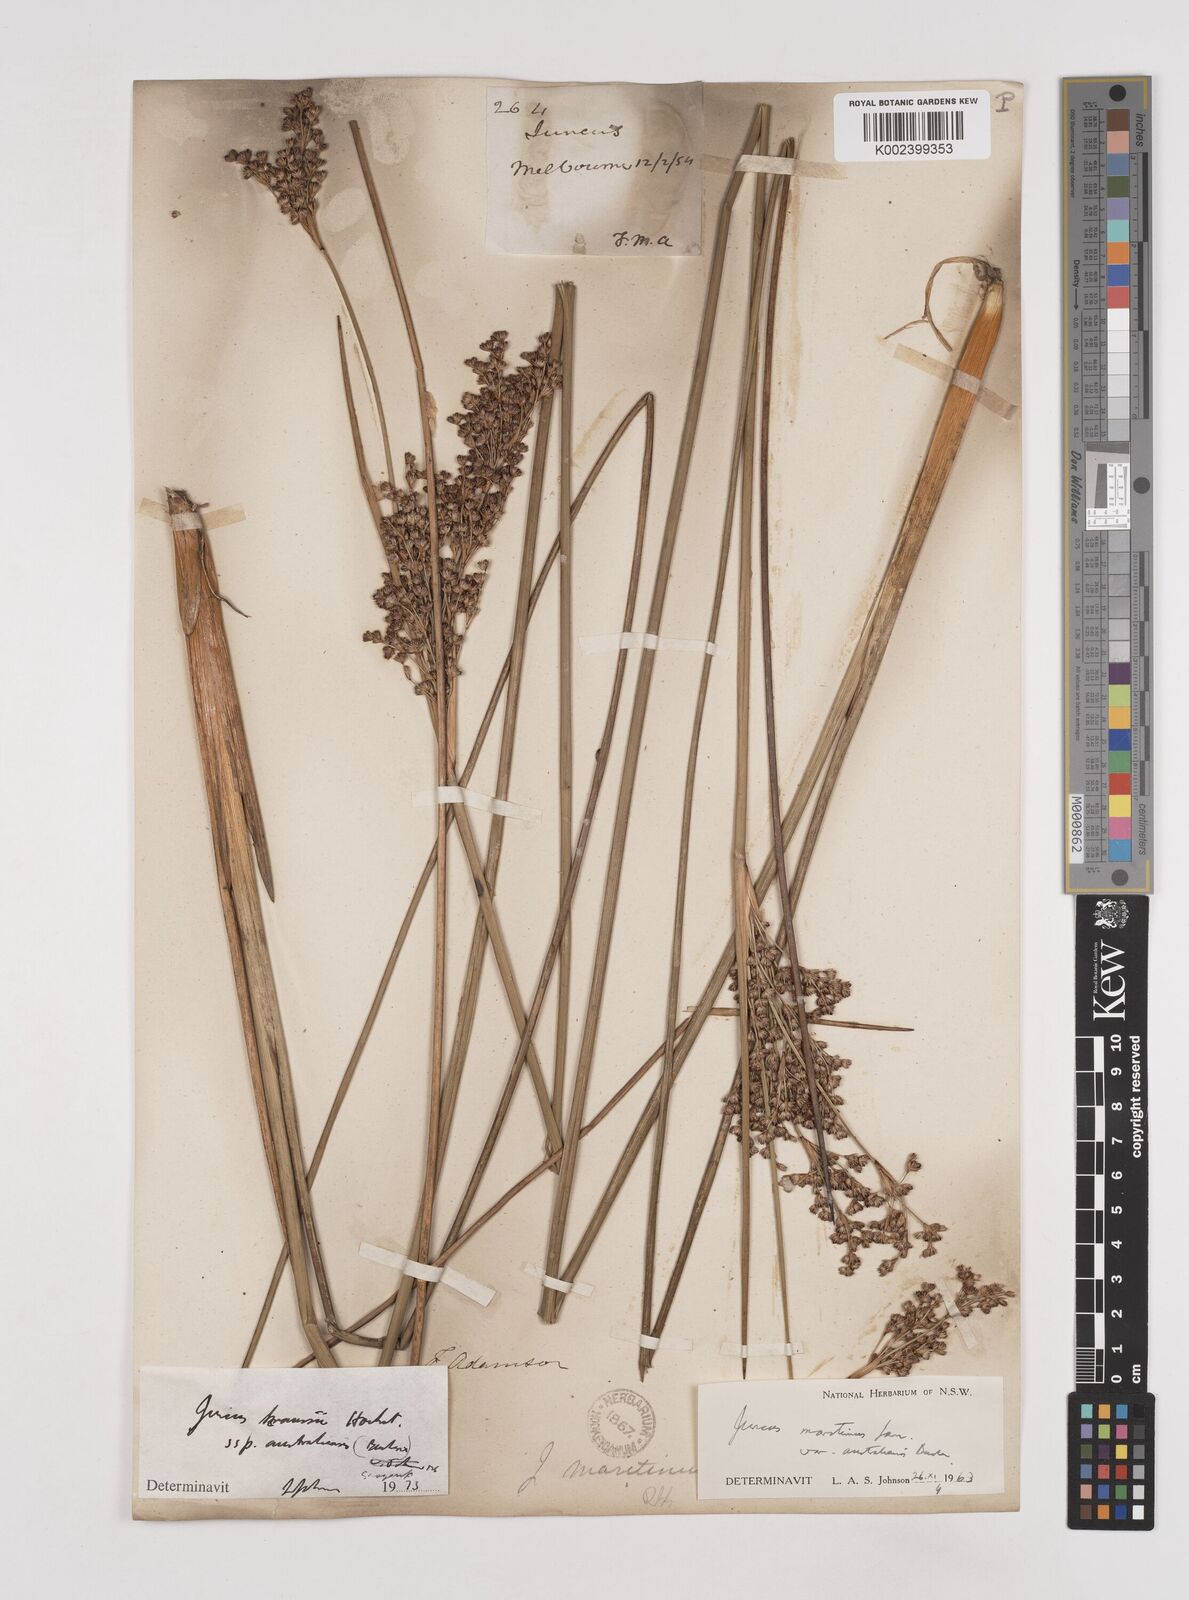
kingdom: Plantae
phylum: Tracheophyta
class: Liliopsida
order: Poales
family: Juncaceae
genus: Juncus
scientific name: Juncus kraussii
